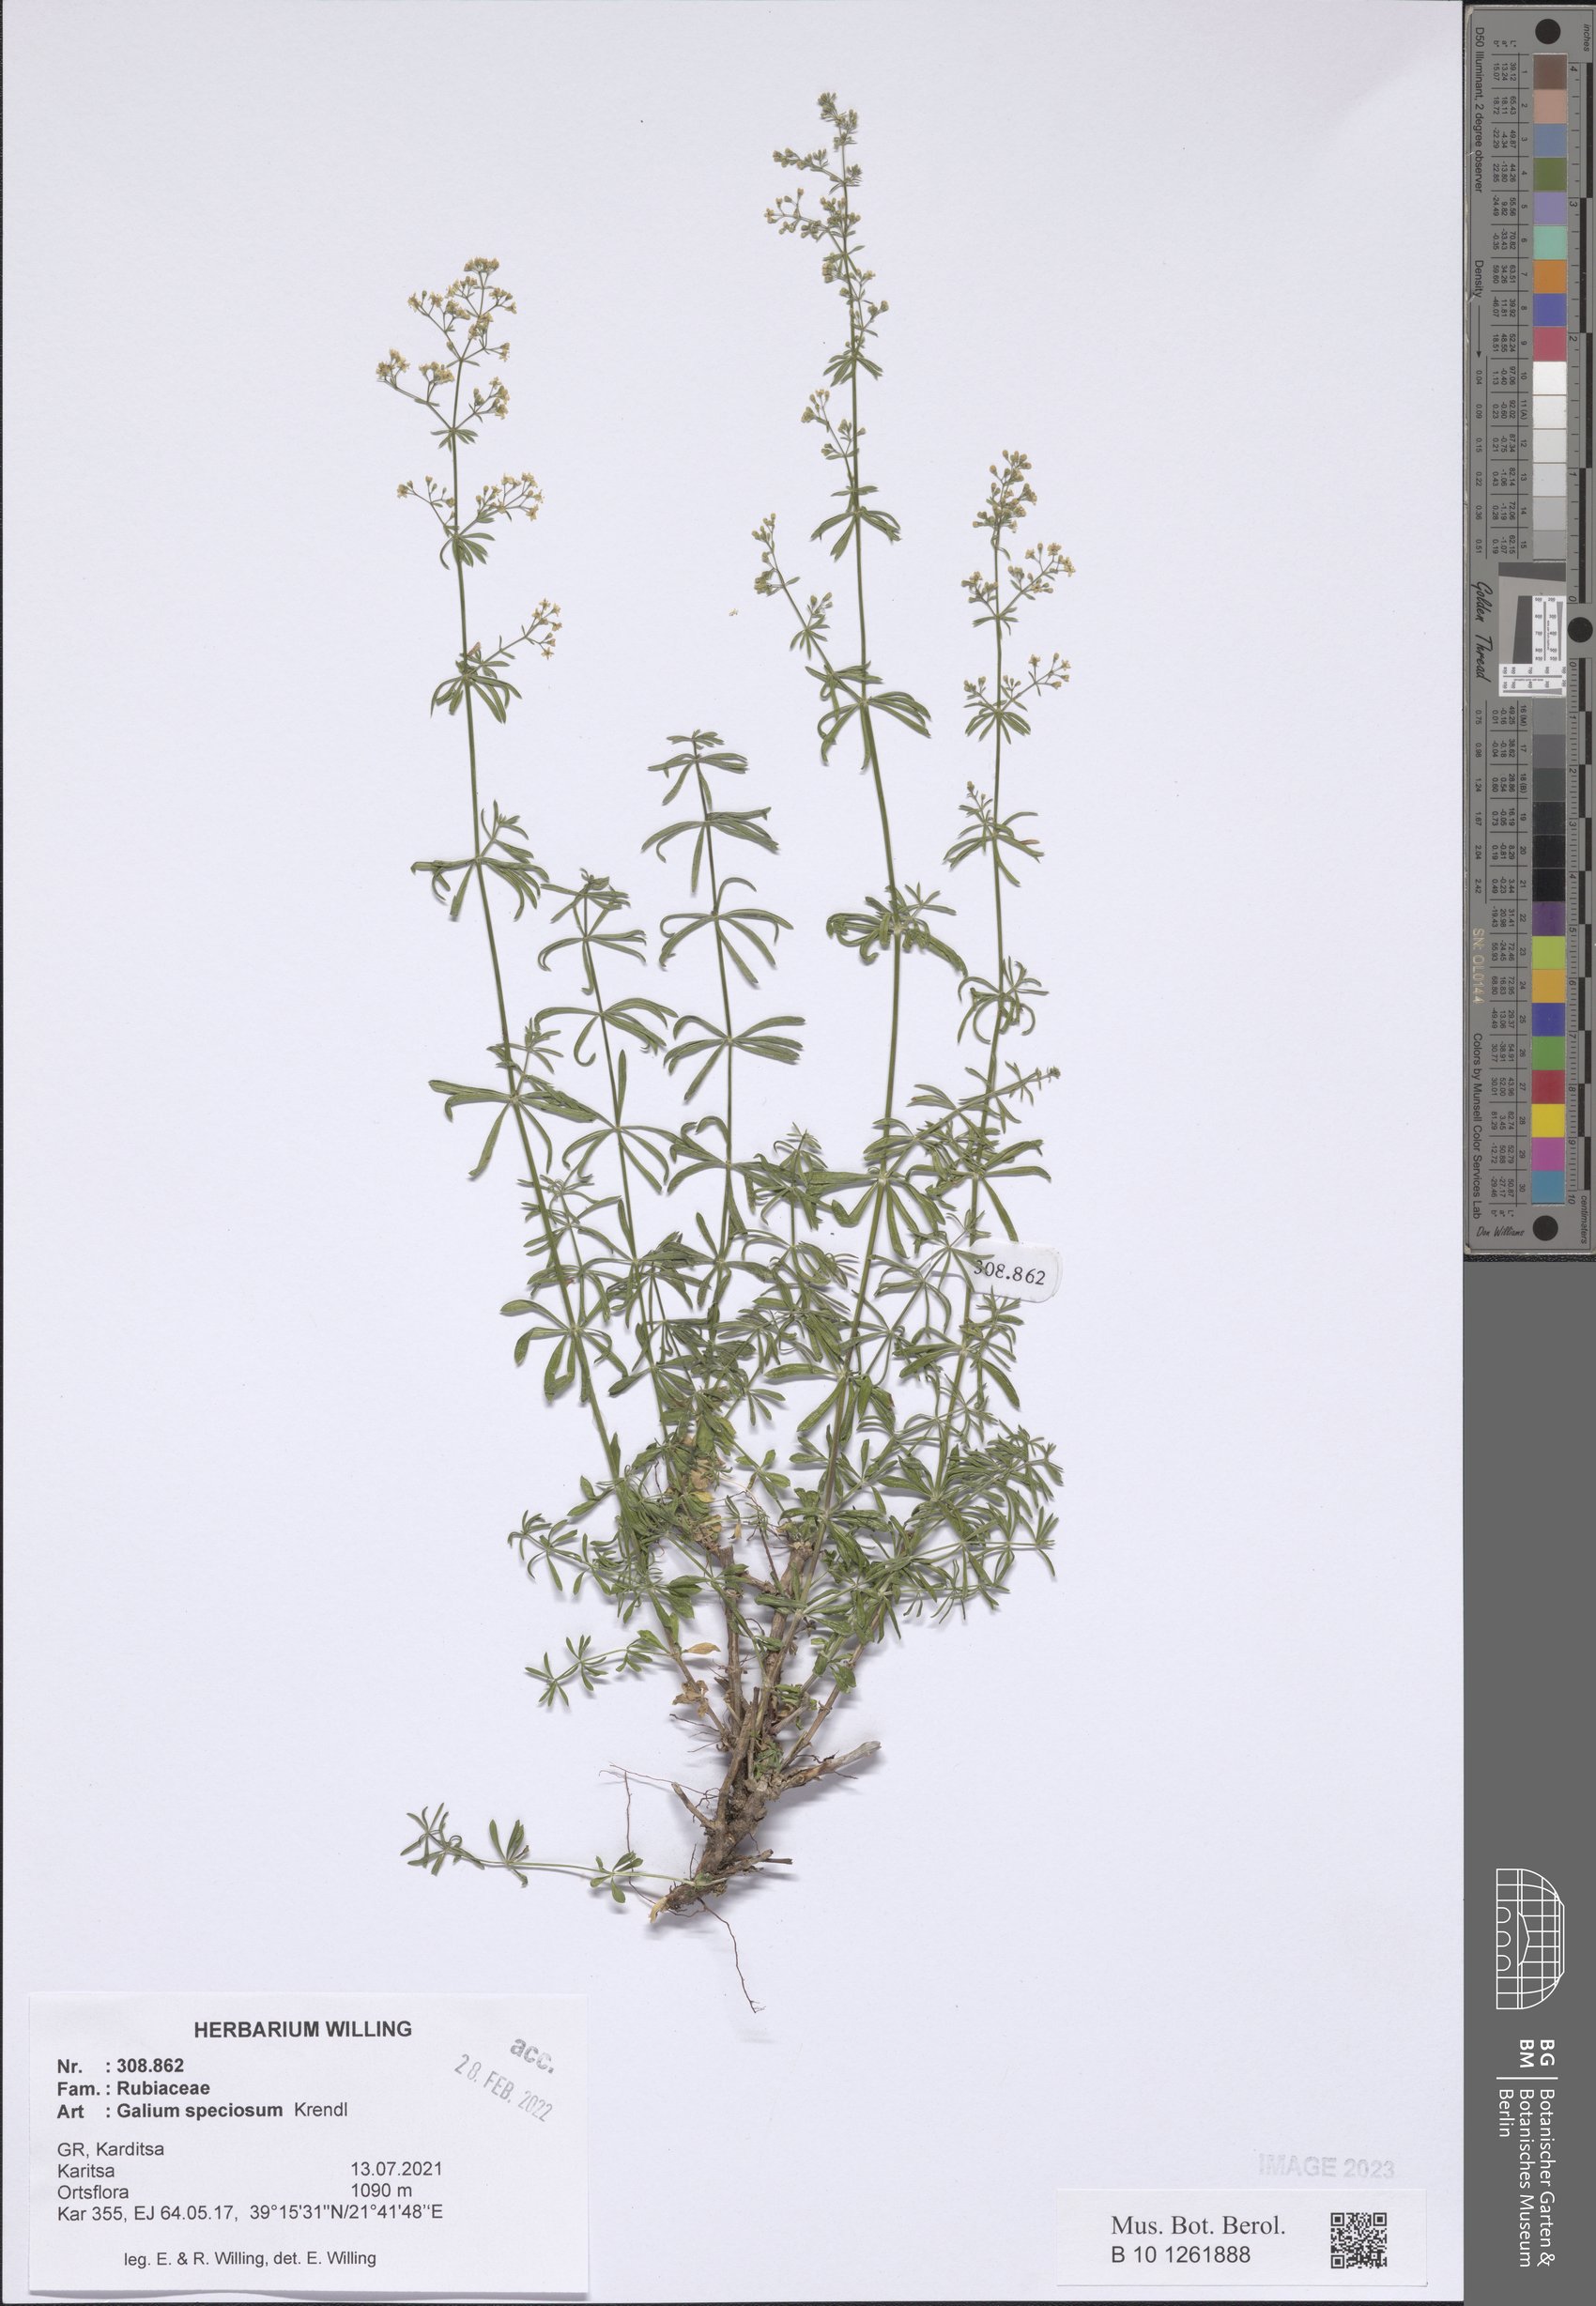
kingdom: Plantae
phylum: Tracheophyta
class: Magnoliopsida
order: Gentianales
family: Rubiaceae
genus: Galium
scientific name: Galium speciosum
